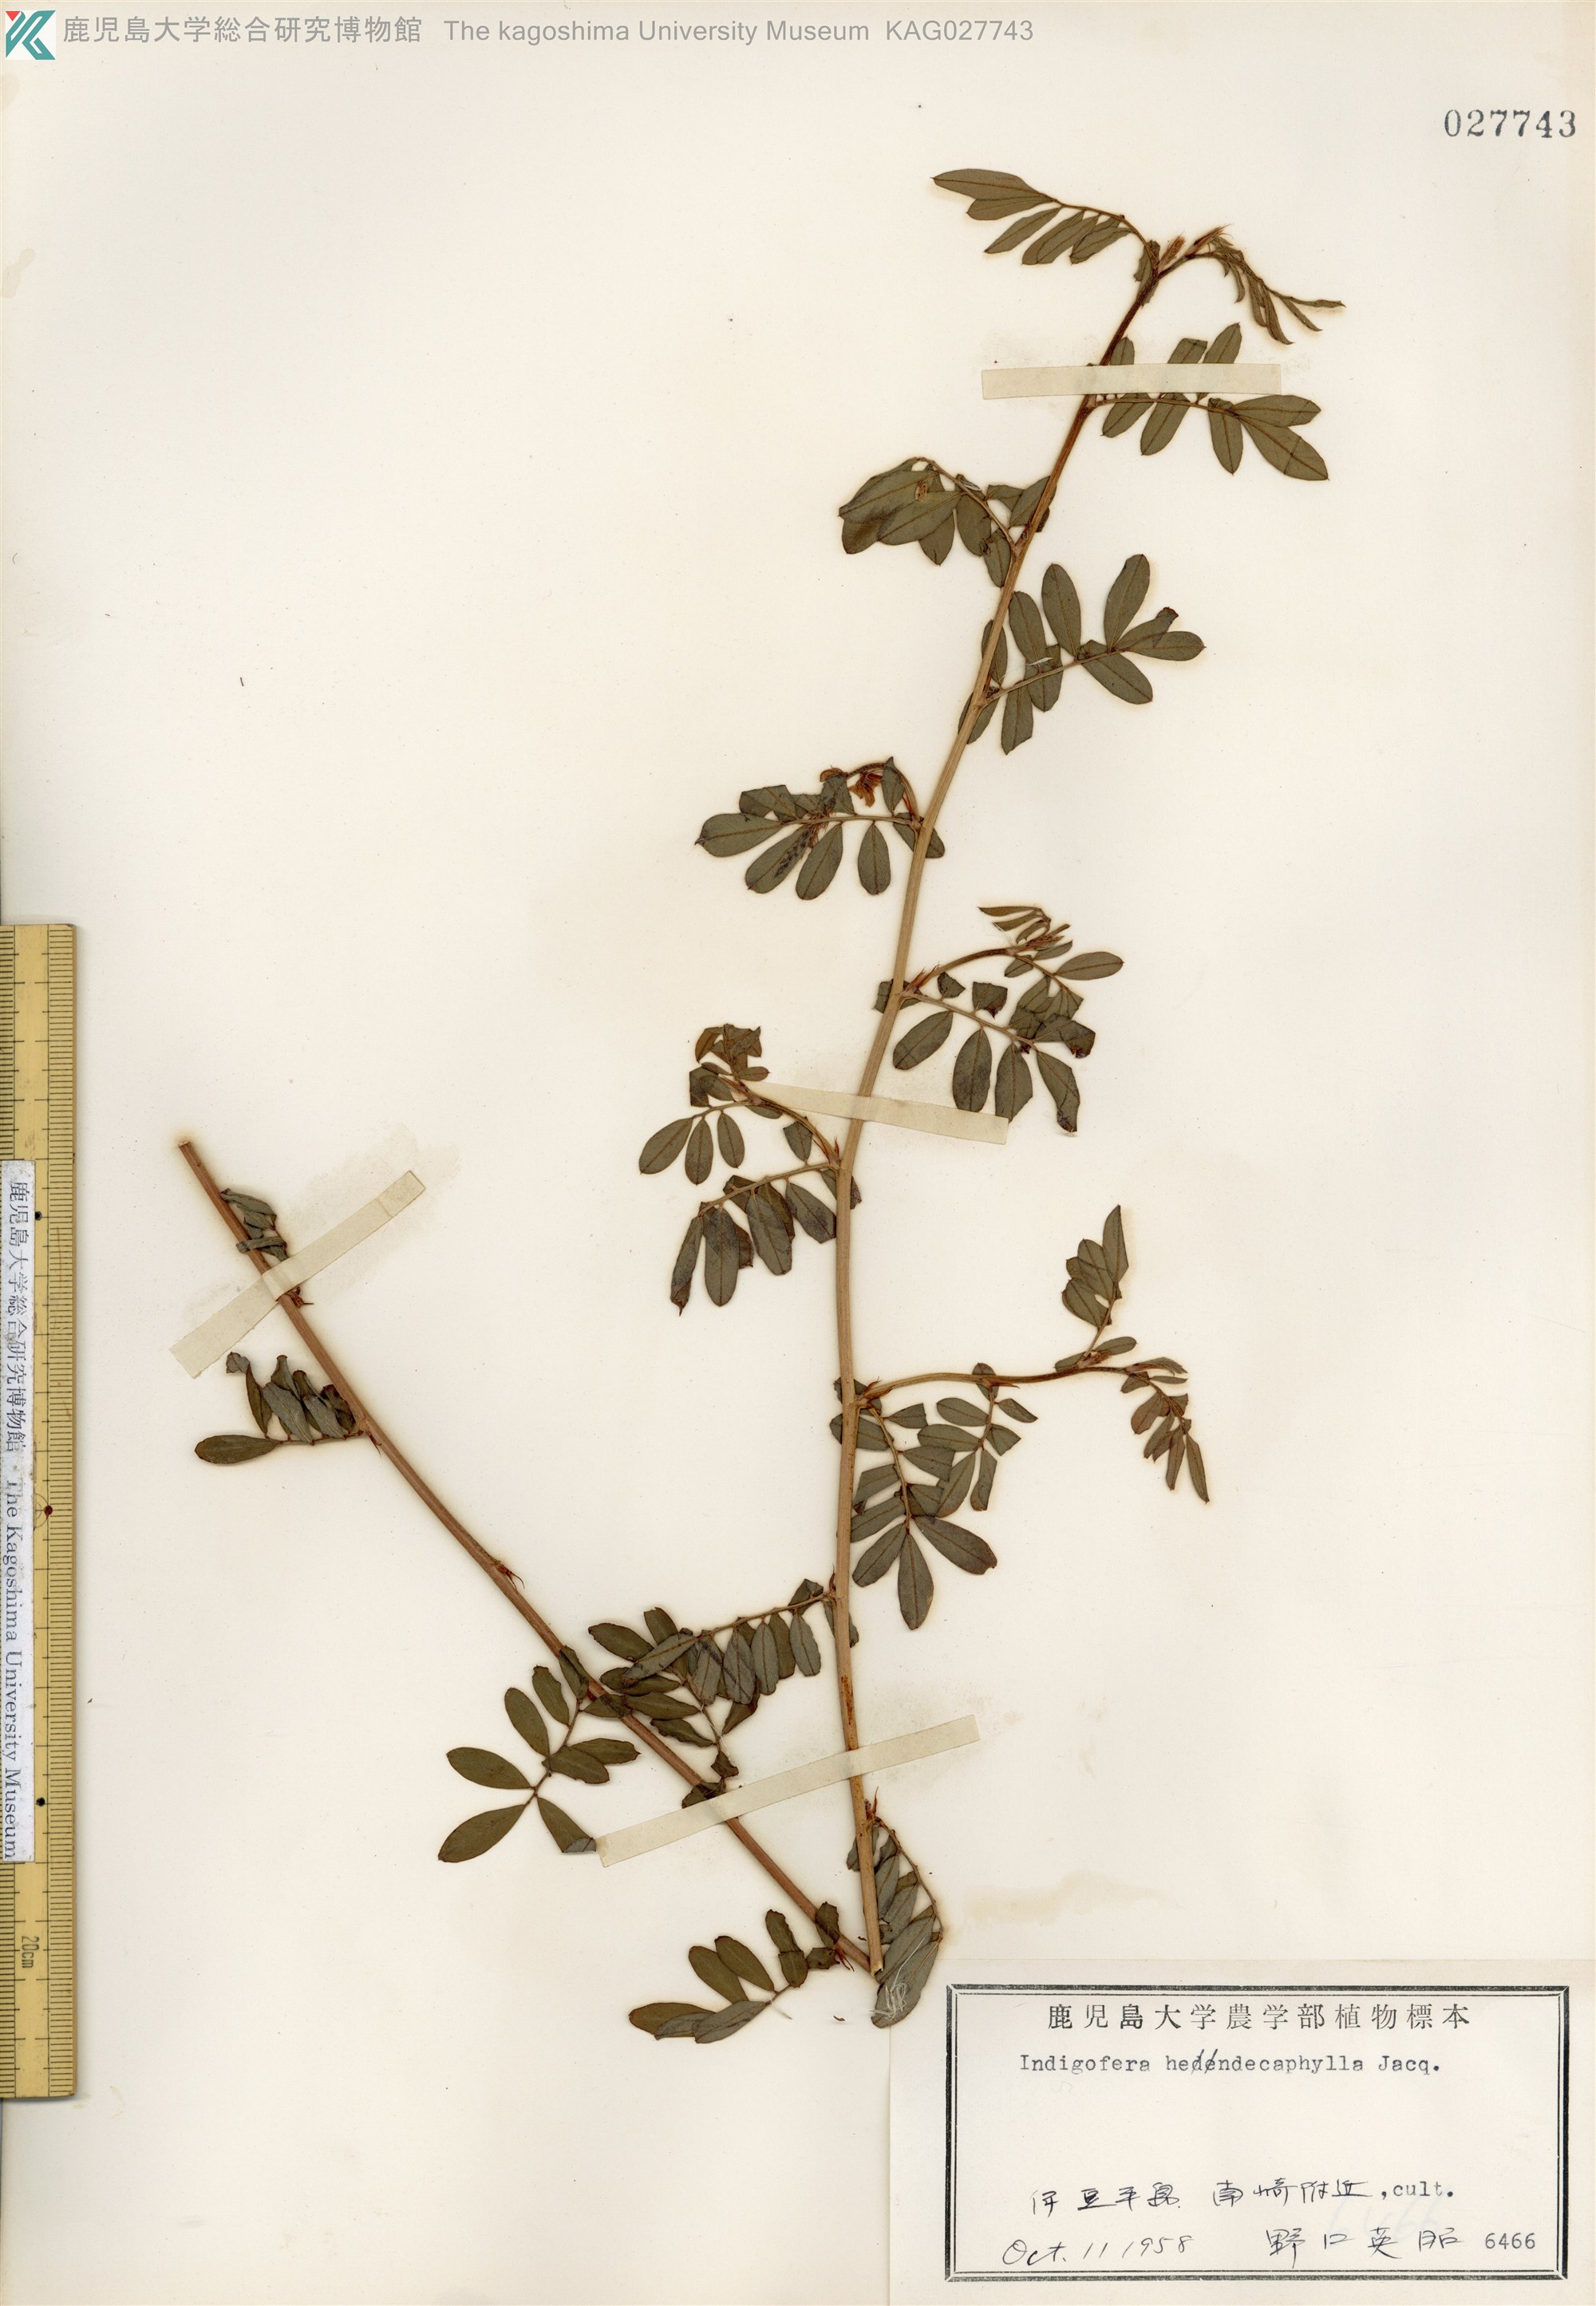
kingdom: Plantae
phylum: Tracheophyta
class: Magnoliopsida
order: Fabales
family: Fabaceae
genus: Indigofera
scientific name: Indigofera hendecaphylla
